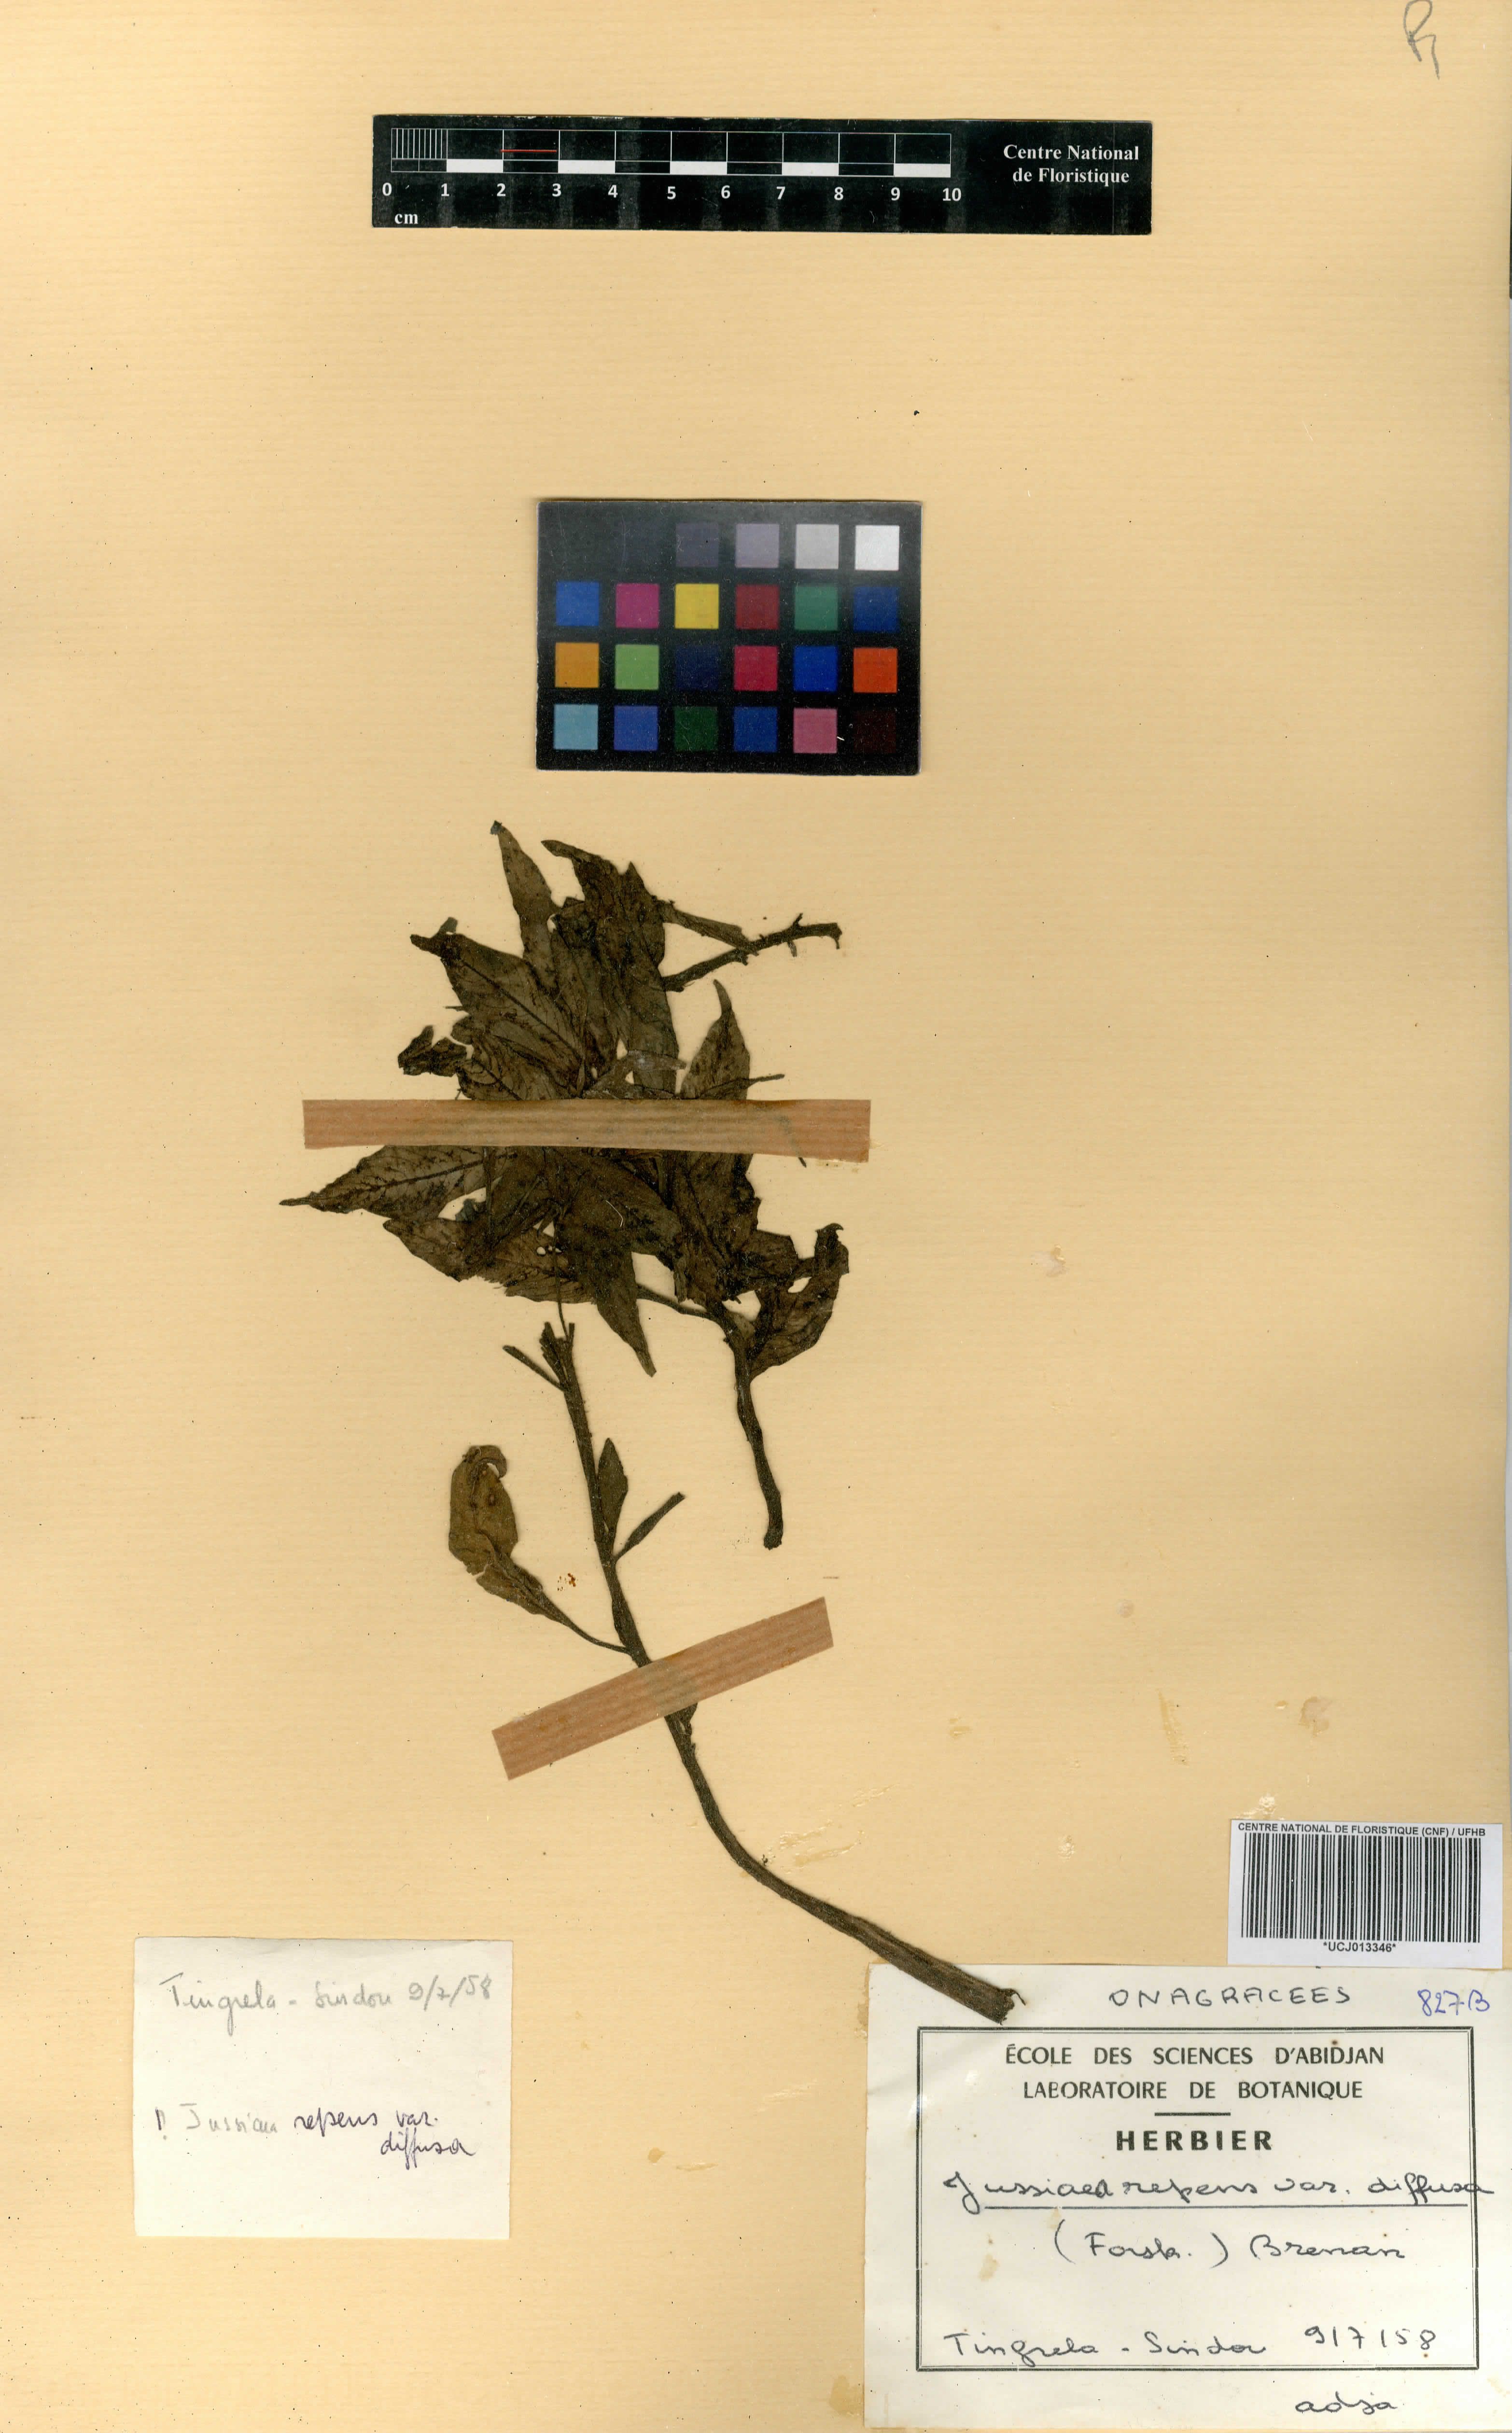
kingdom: Plantae
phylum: Tracheophyta
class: Magnoliopsida
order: Myrtales
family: Onagraceae
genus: Ludwigia
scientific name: Ludwigia perennis
